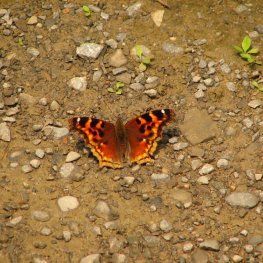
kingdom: Animalia
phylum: Arthropoda
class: Insecta
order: Lepidoptera
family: Nymphalidae
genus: Polygonia
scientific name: Polygonia vaualbum
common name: Compton Tortoiseshell
